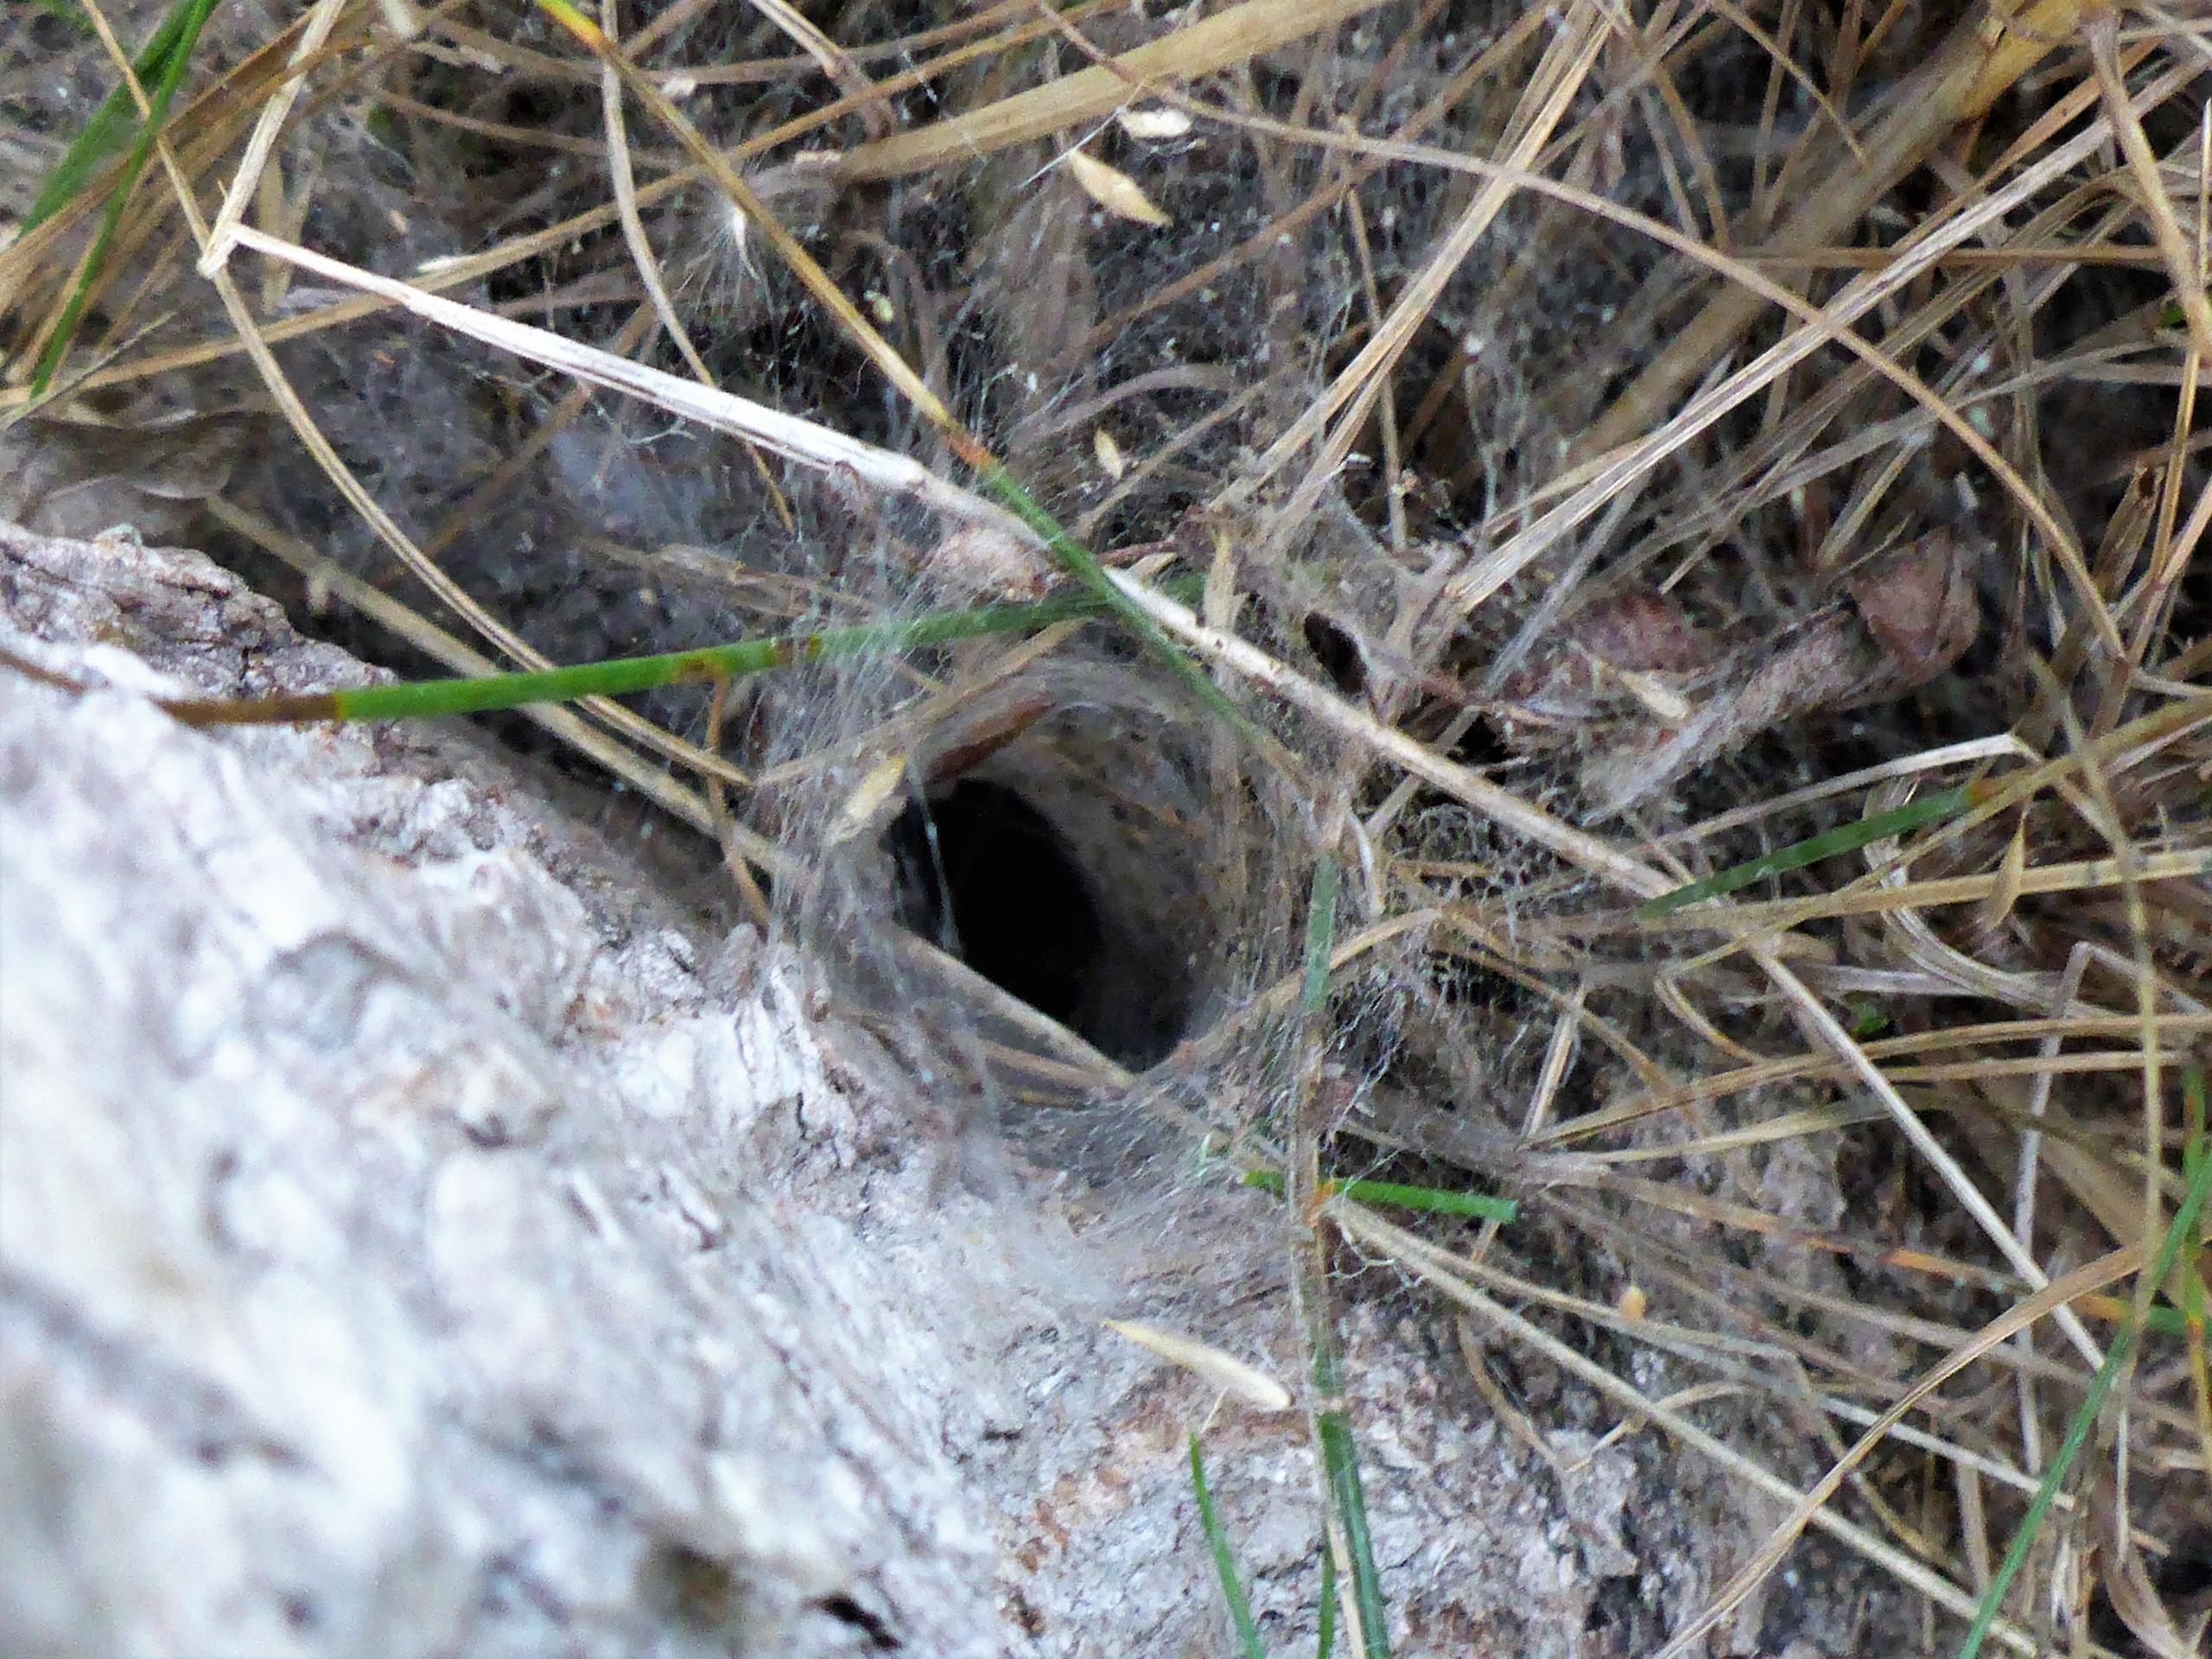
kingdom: Animalia
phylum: Arthropoda
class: Arachnida
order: Araneae
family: Agelenidae
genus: Agelena
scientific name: Agelena labyrinthica
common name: Labyrintedderkop
